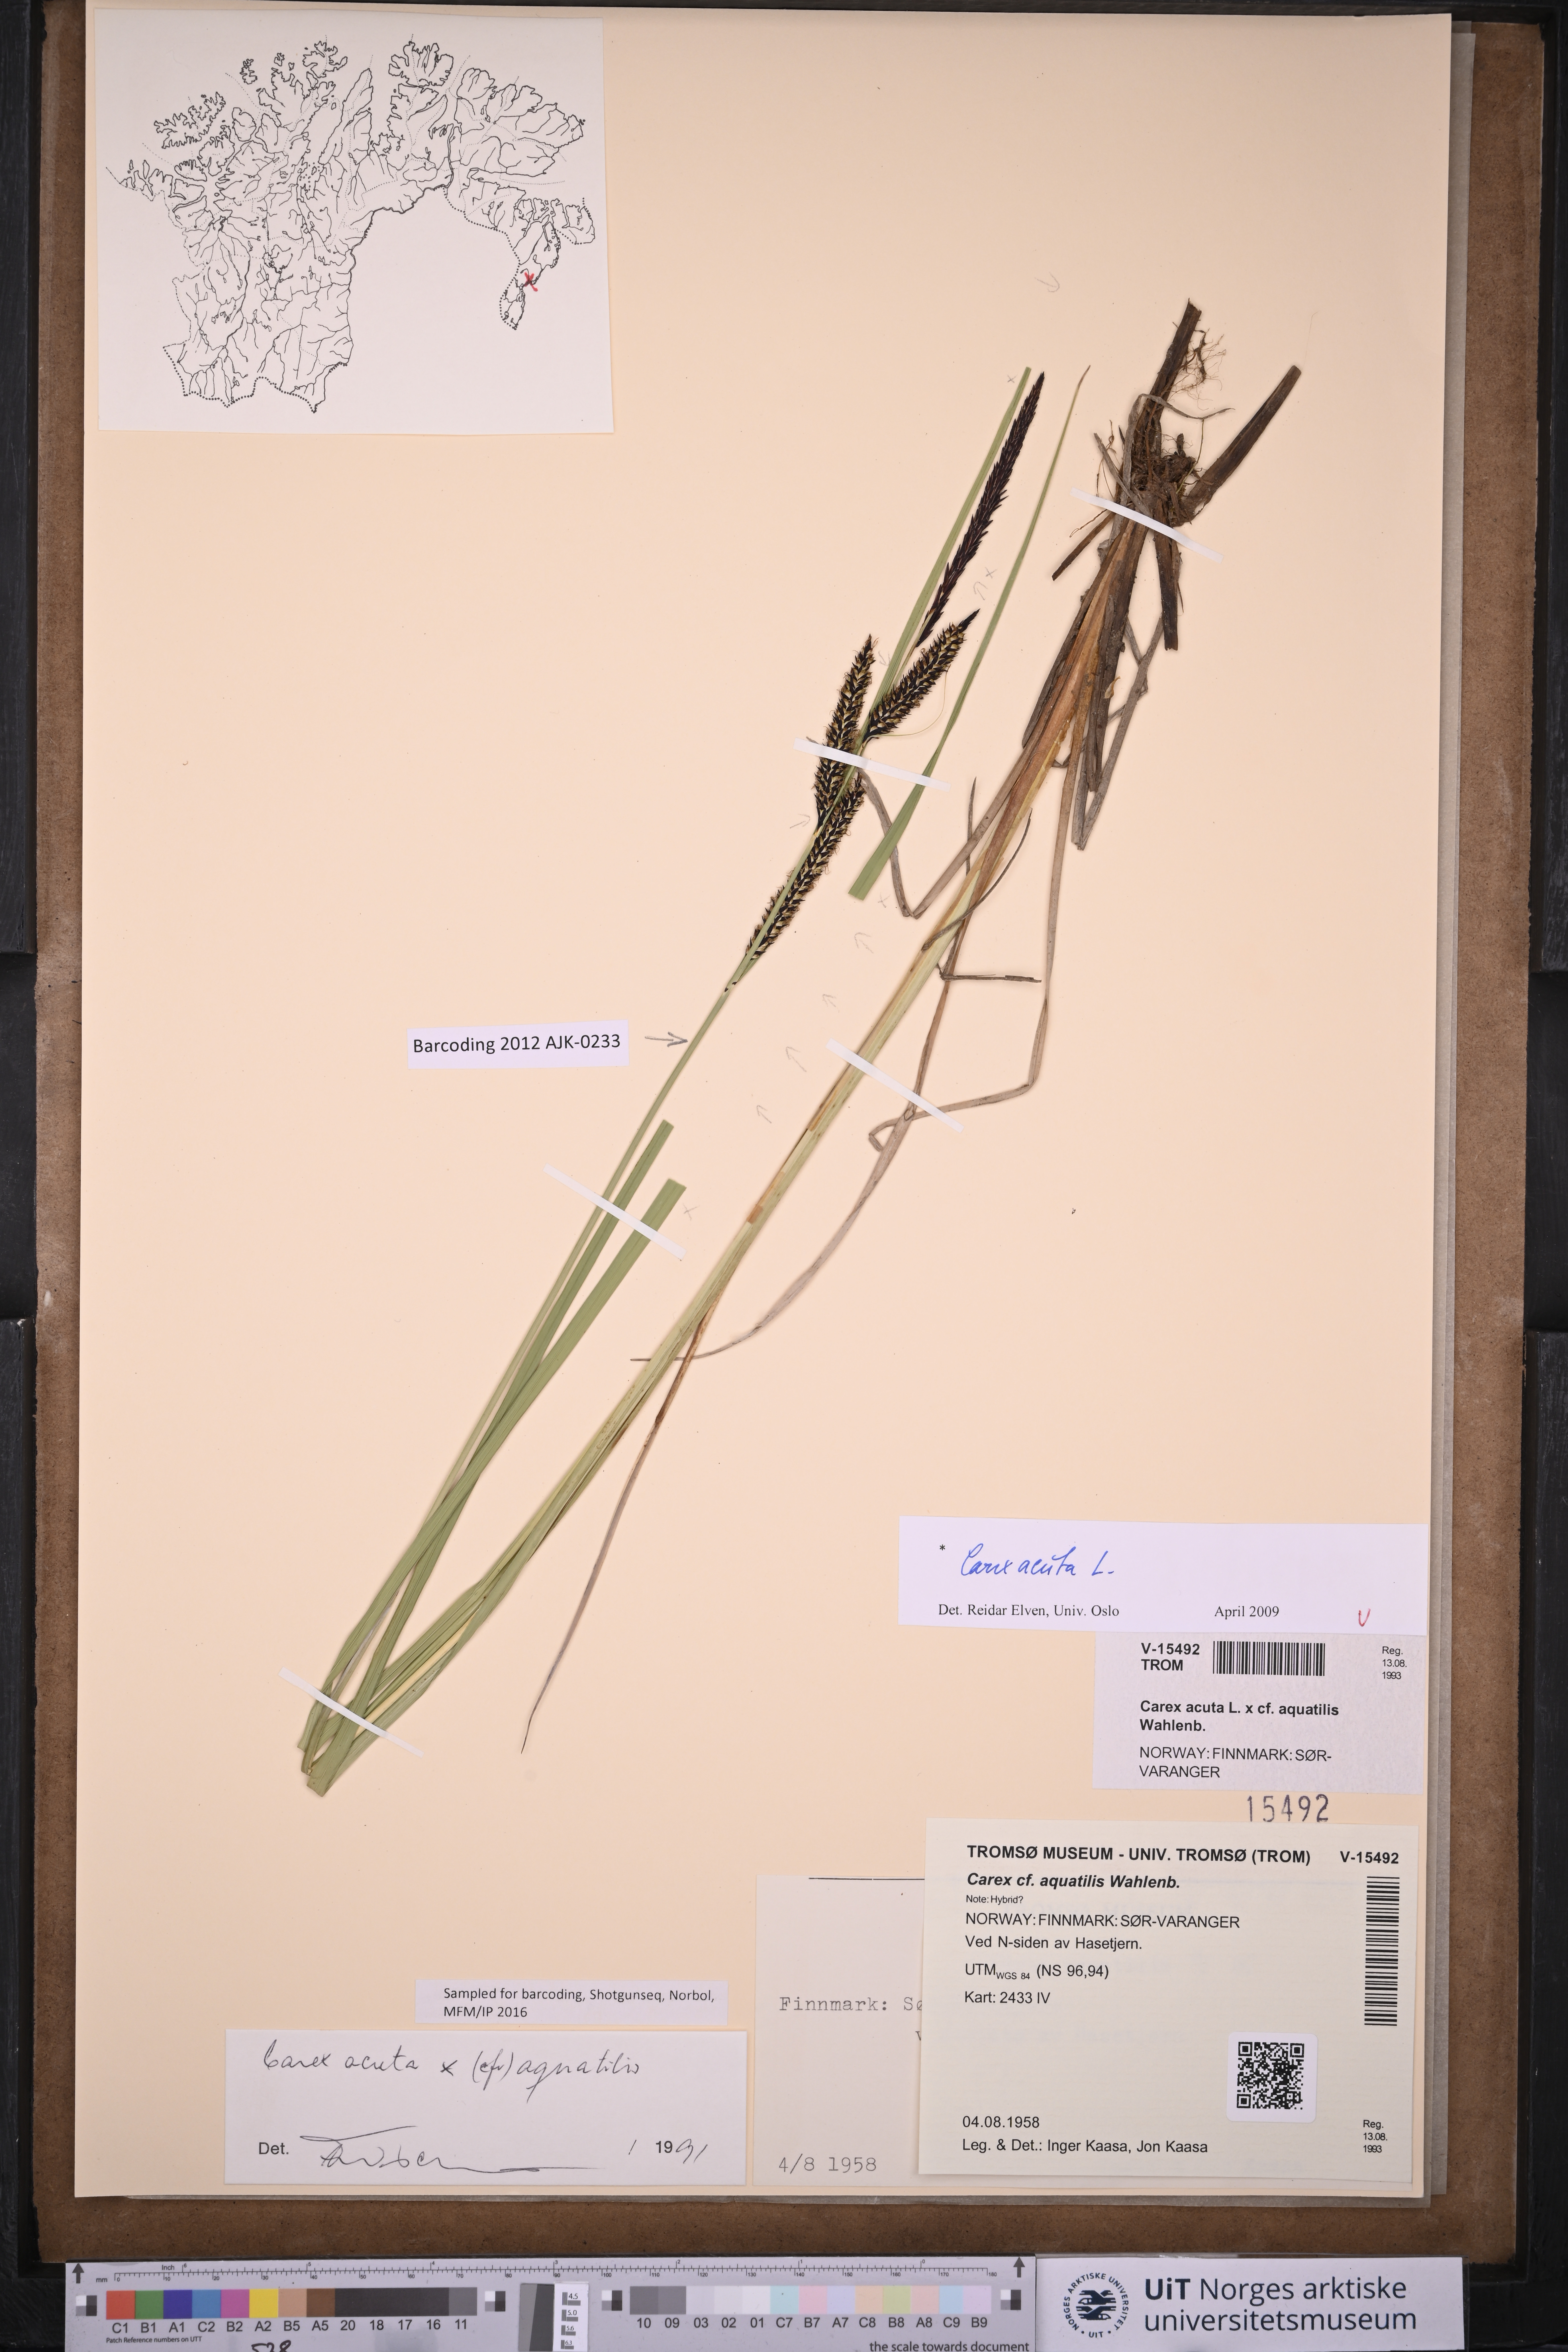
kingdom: Plantae
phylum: Tracheophyta
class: Liliopsida
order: Poales
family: Cyperaceae
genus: Carex
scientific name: Carex acuta
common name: Slender tufted-sedge
